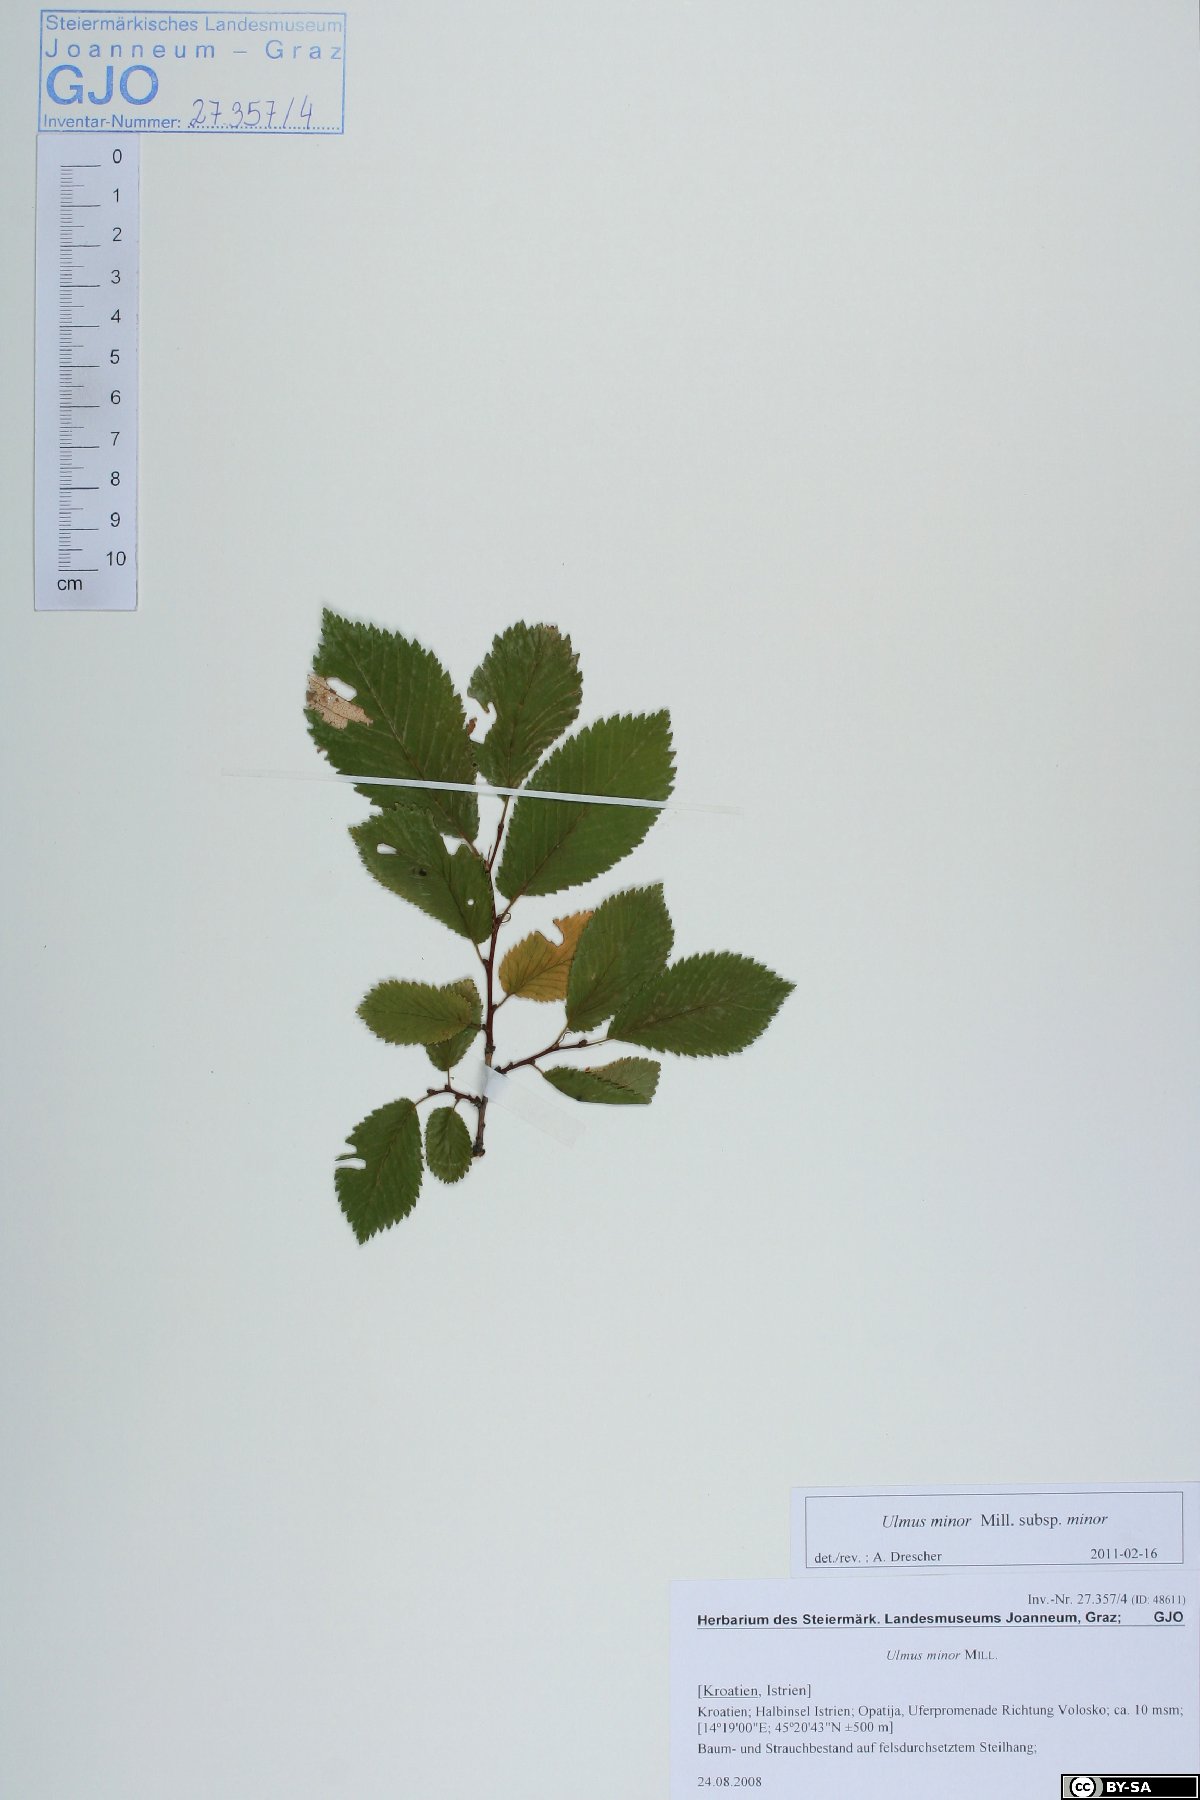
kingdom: Plantae
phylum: Tracheophyta
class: Magnoliopsida
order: Rosales
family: Ulmaceae
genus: Ulmus
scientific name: Ulmus minor
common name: Small-leaved elm
